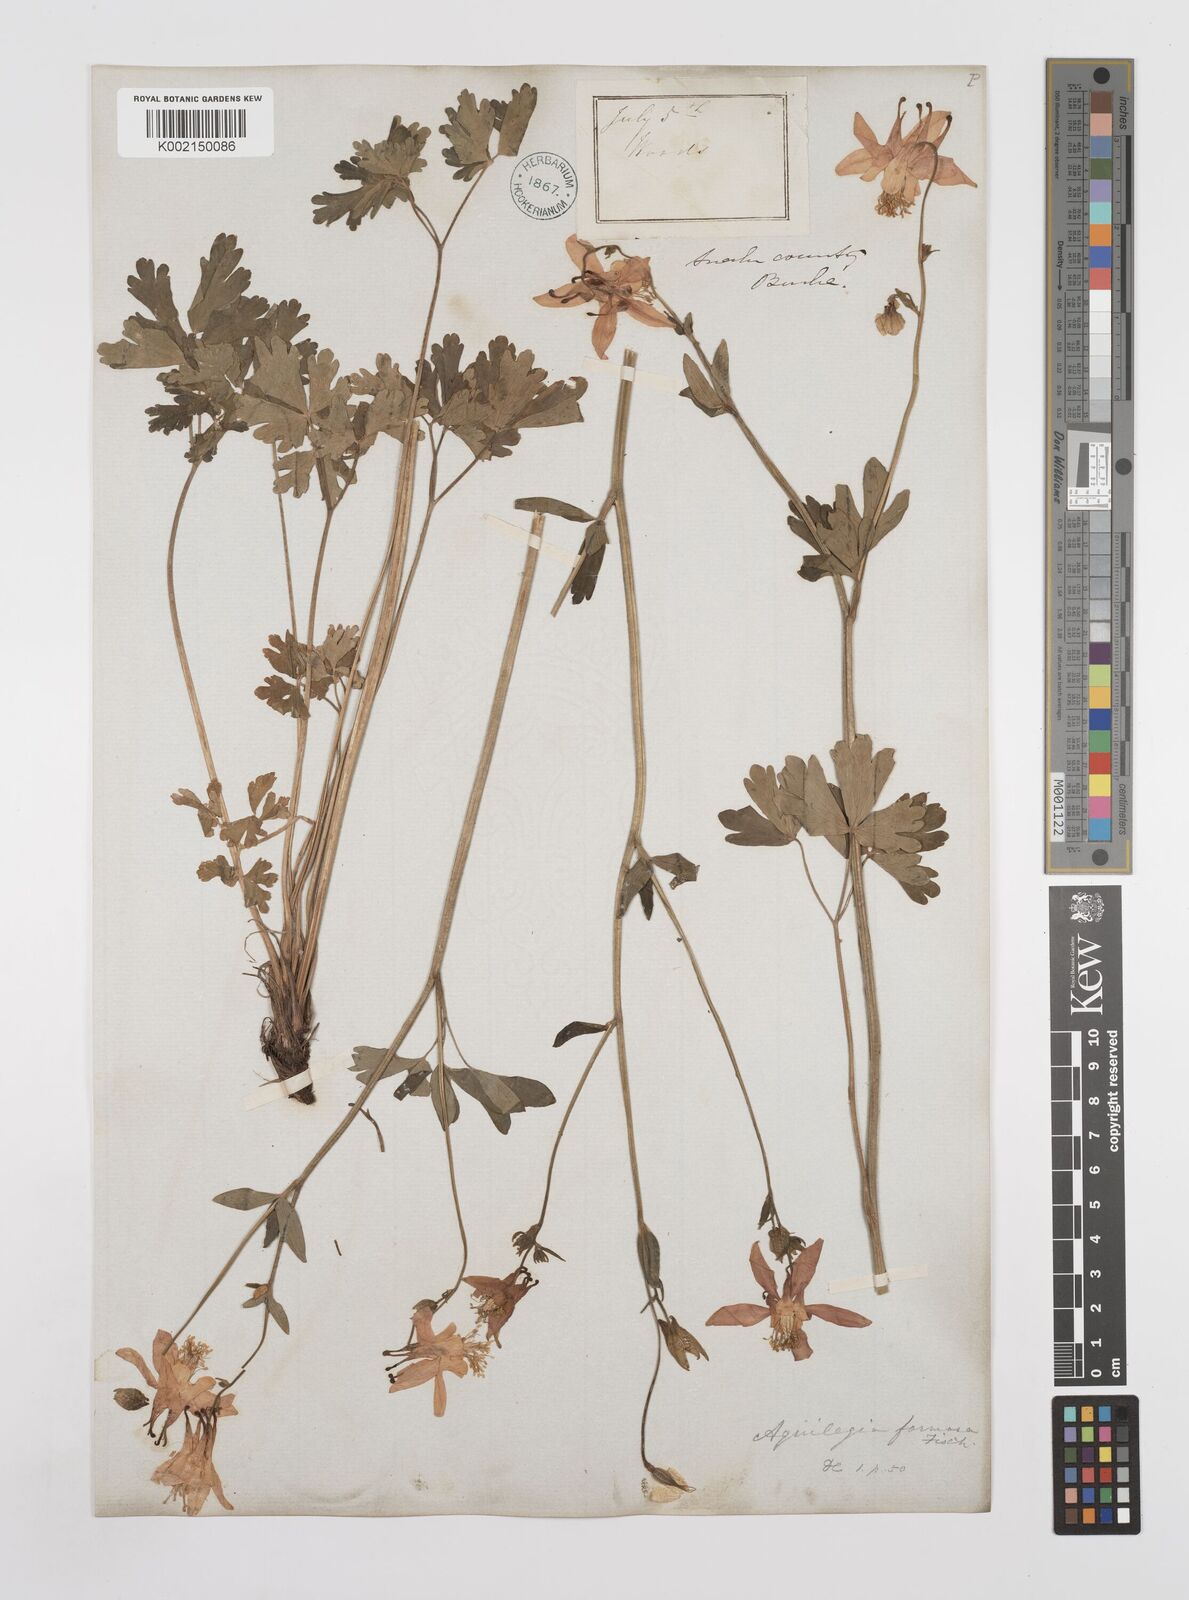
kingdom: Plantae
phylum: Tracheophyta
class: Magnoliopsida
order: Ranunculales
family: Ranunculaceae
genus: Aquilegia
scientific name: Aquilegia
